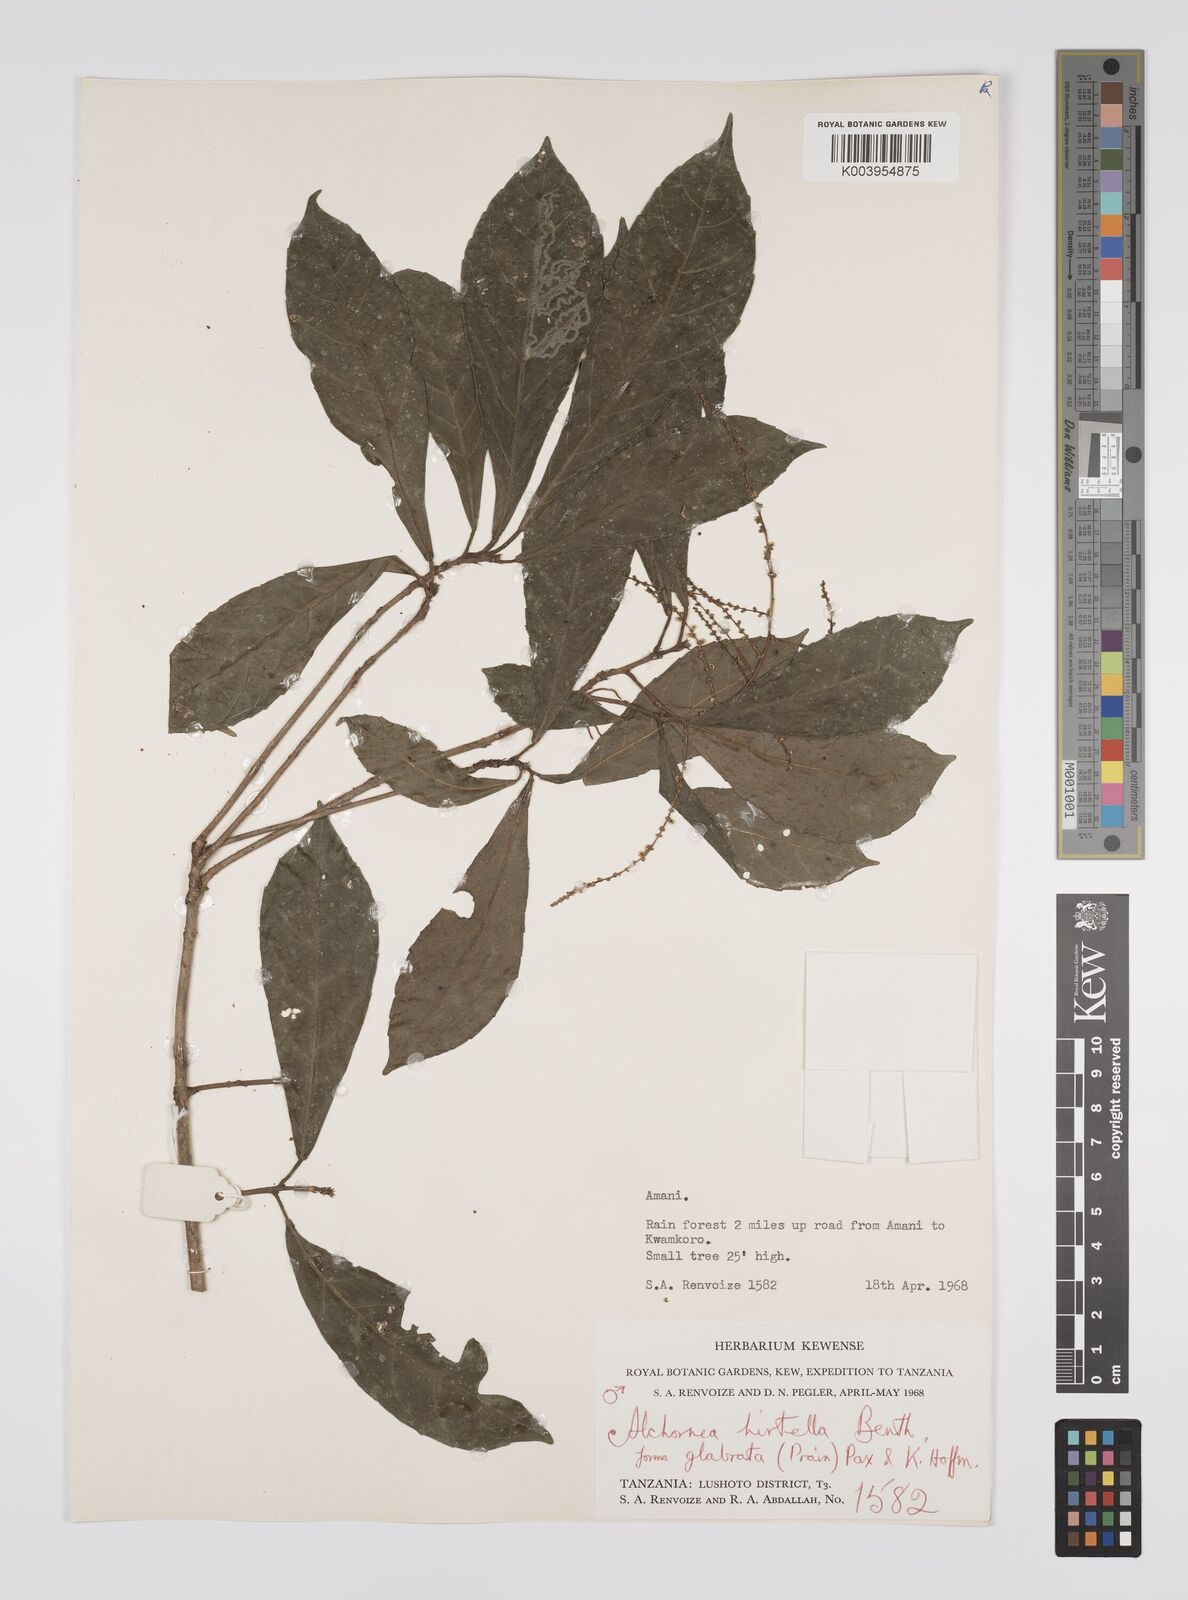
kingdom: Plantae
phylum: Tracheophyta
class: Magnoliopsida
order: Malpighiales
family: Euphorbiaceae
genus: Alchornea
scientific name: Alchornea hirtella
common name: Forest bead-string
